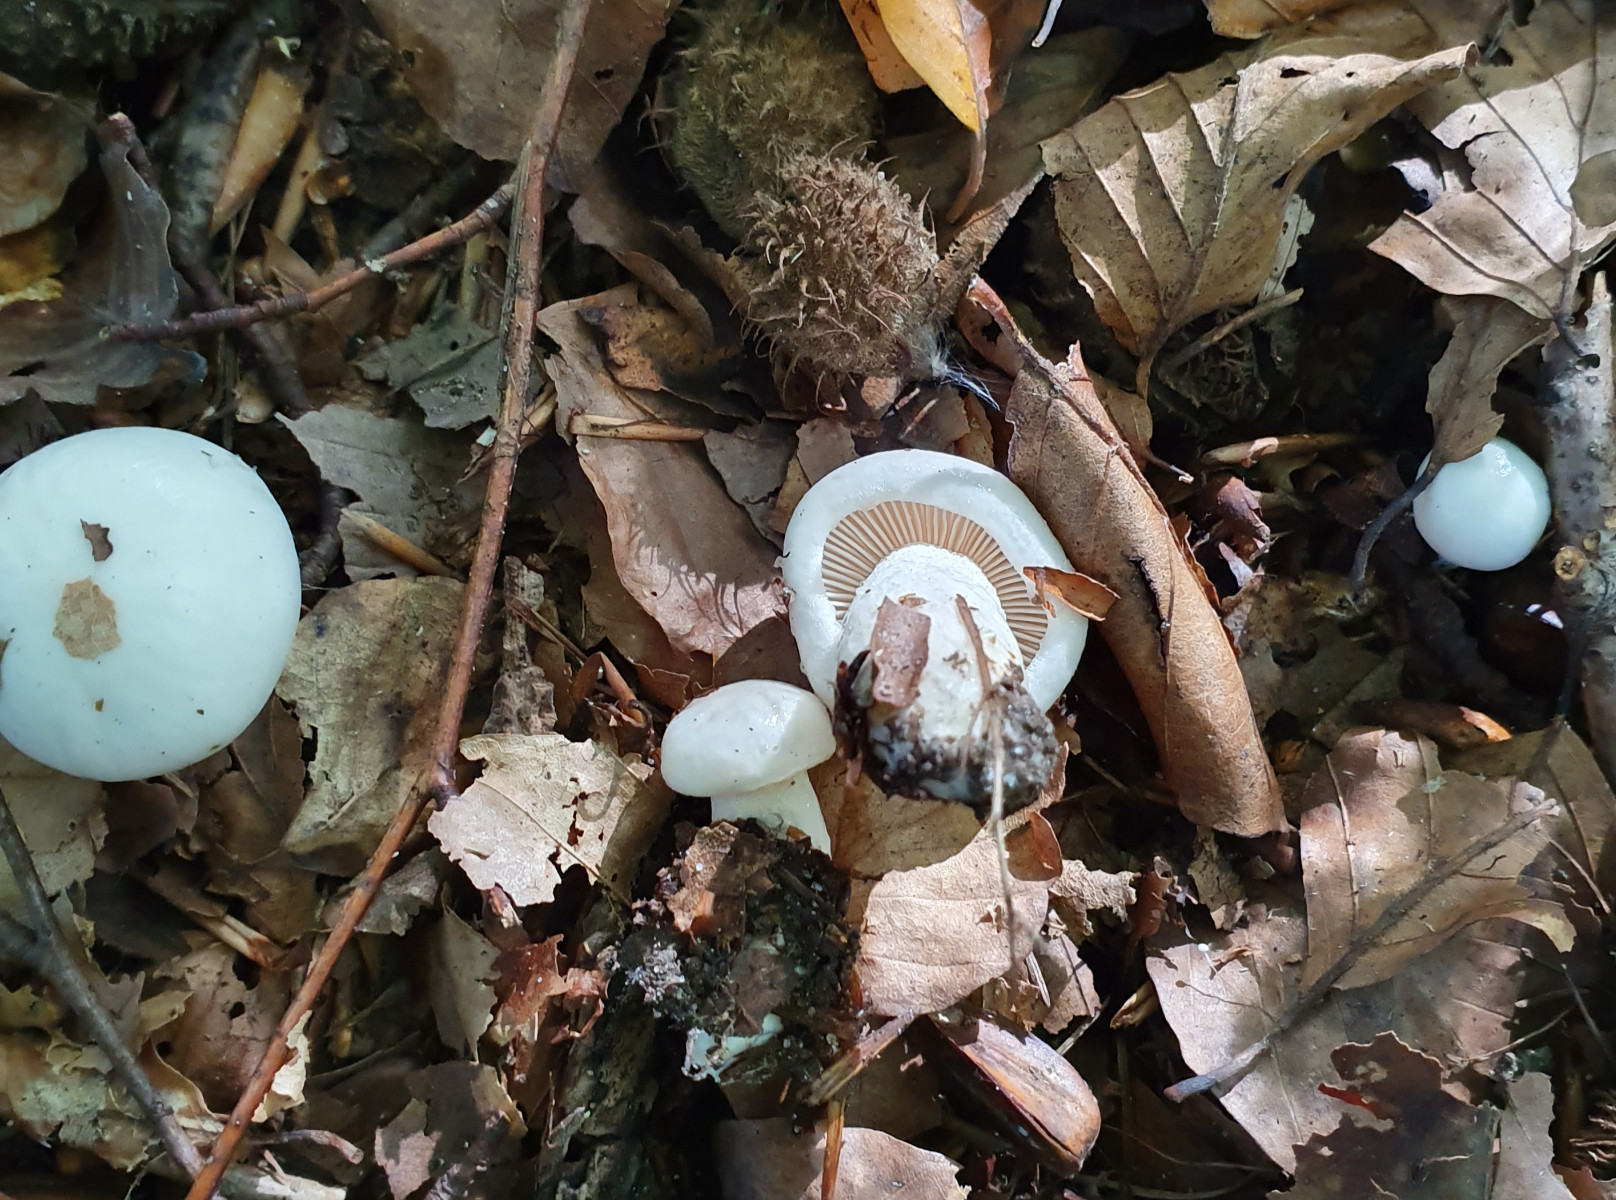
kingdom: Fungi
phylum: Basidiomycota
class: Agaricomycetes
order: Agaricales
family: Hygrophoraceae
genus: Hygrophorus
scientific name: Hygrophorus
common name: sneglehat
